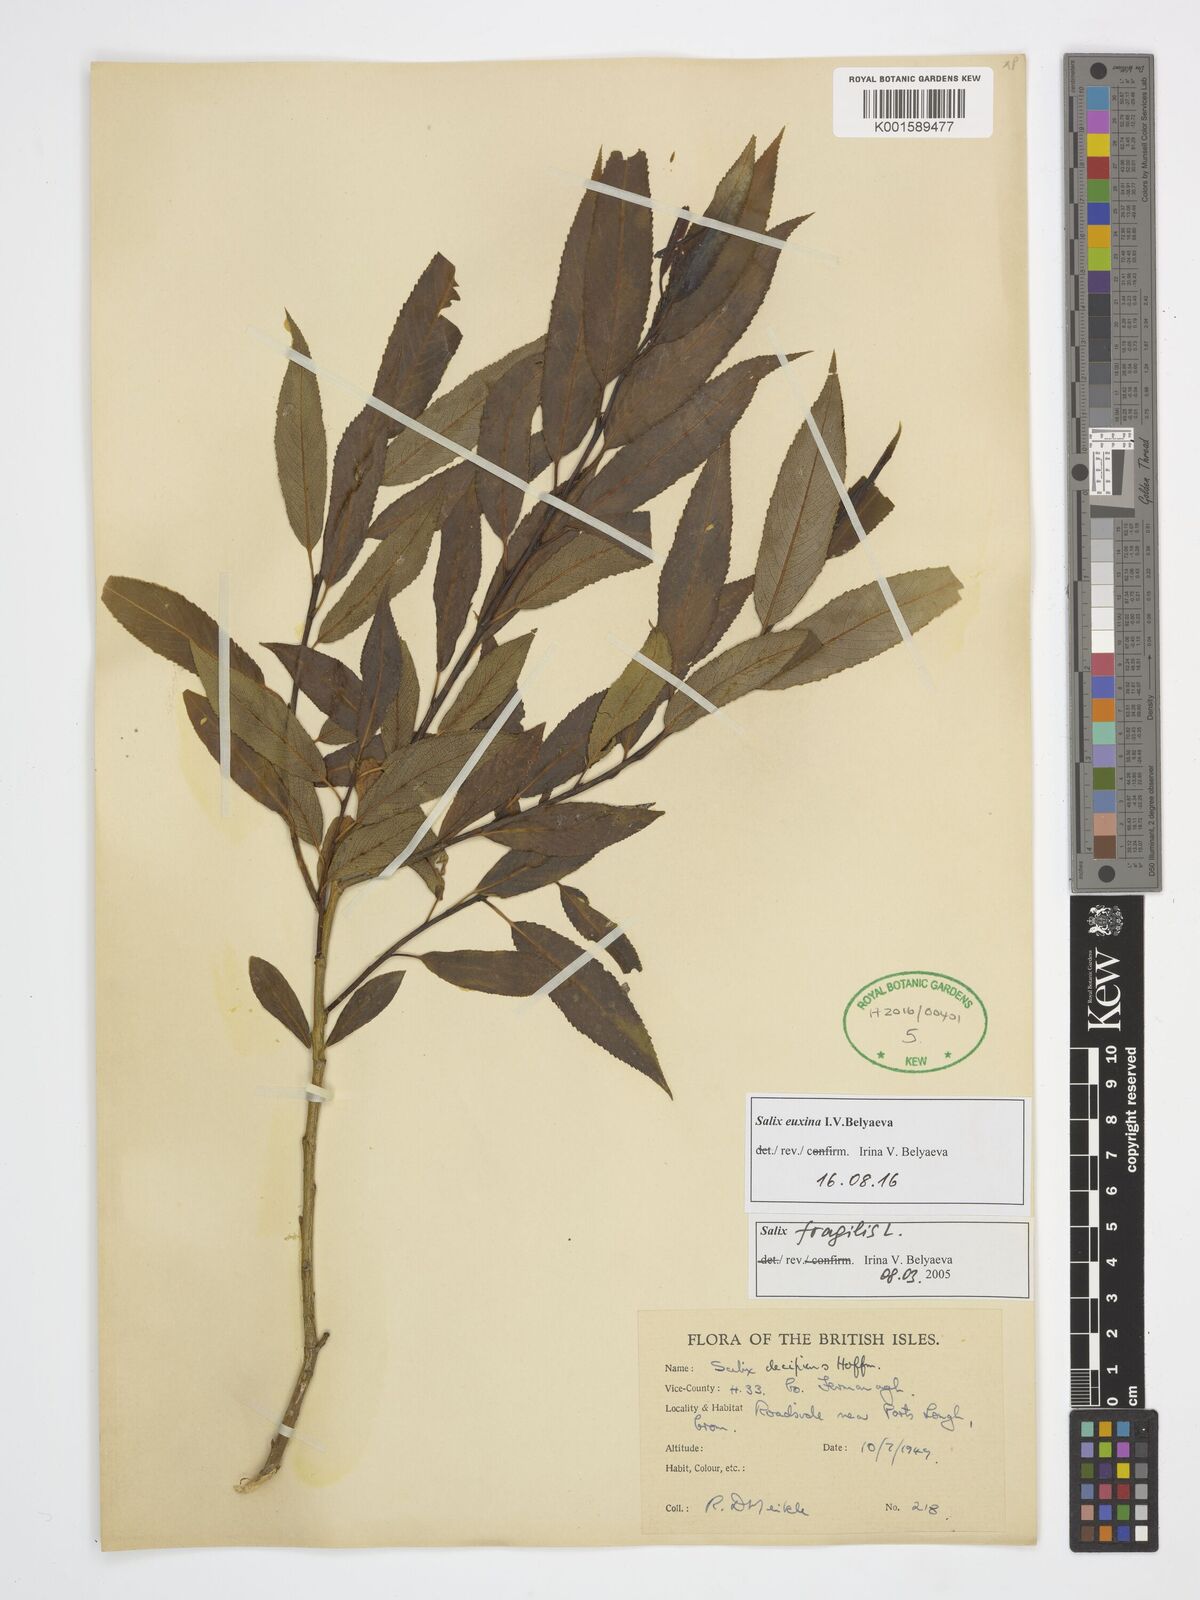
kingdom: Plantae
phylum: Tracheophyta
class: Magnoliopsida
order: Malpighiales
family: Salicaceae
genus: Salix
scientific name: Salix alba
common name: White willow
